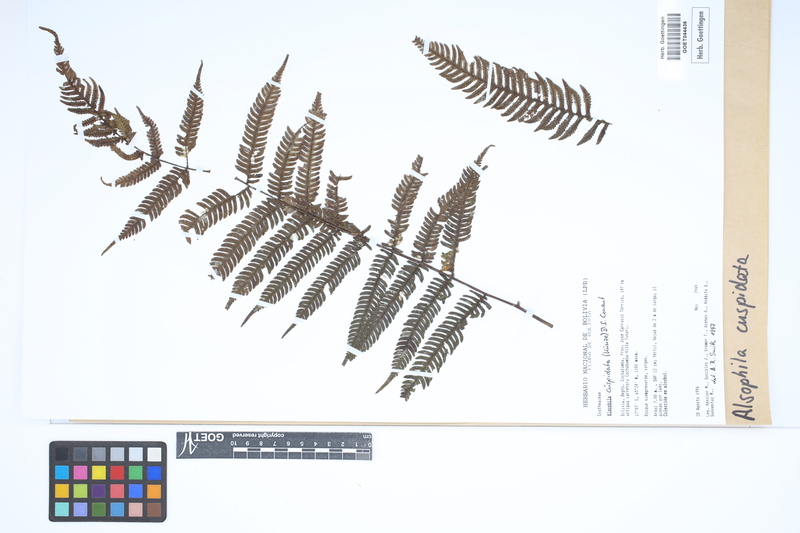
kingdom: Plantae
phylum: Tracheophyta
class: Polypodiopsida
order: Cyatheales
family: Cyatheaceae
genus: Alsophila
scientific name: Alsophila cuspidata
